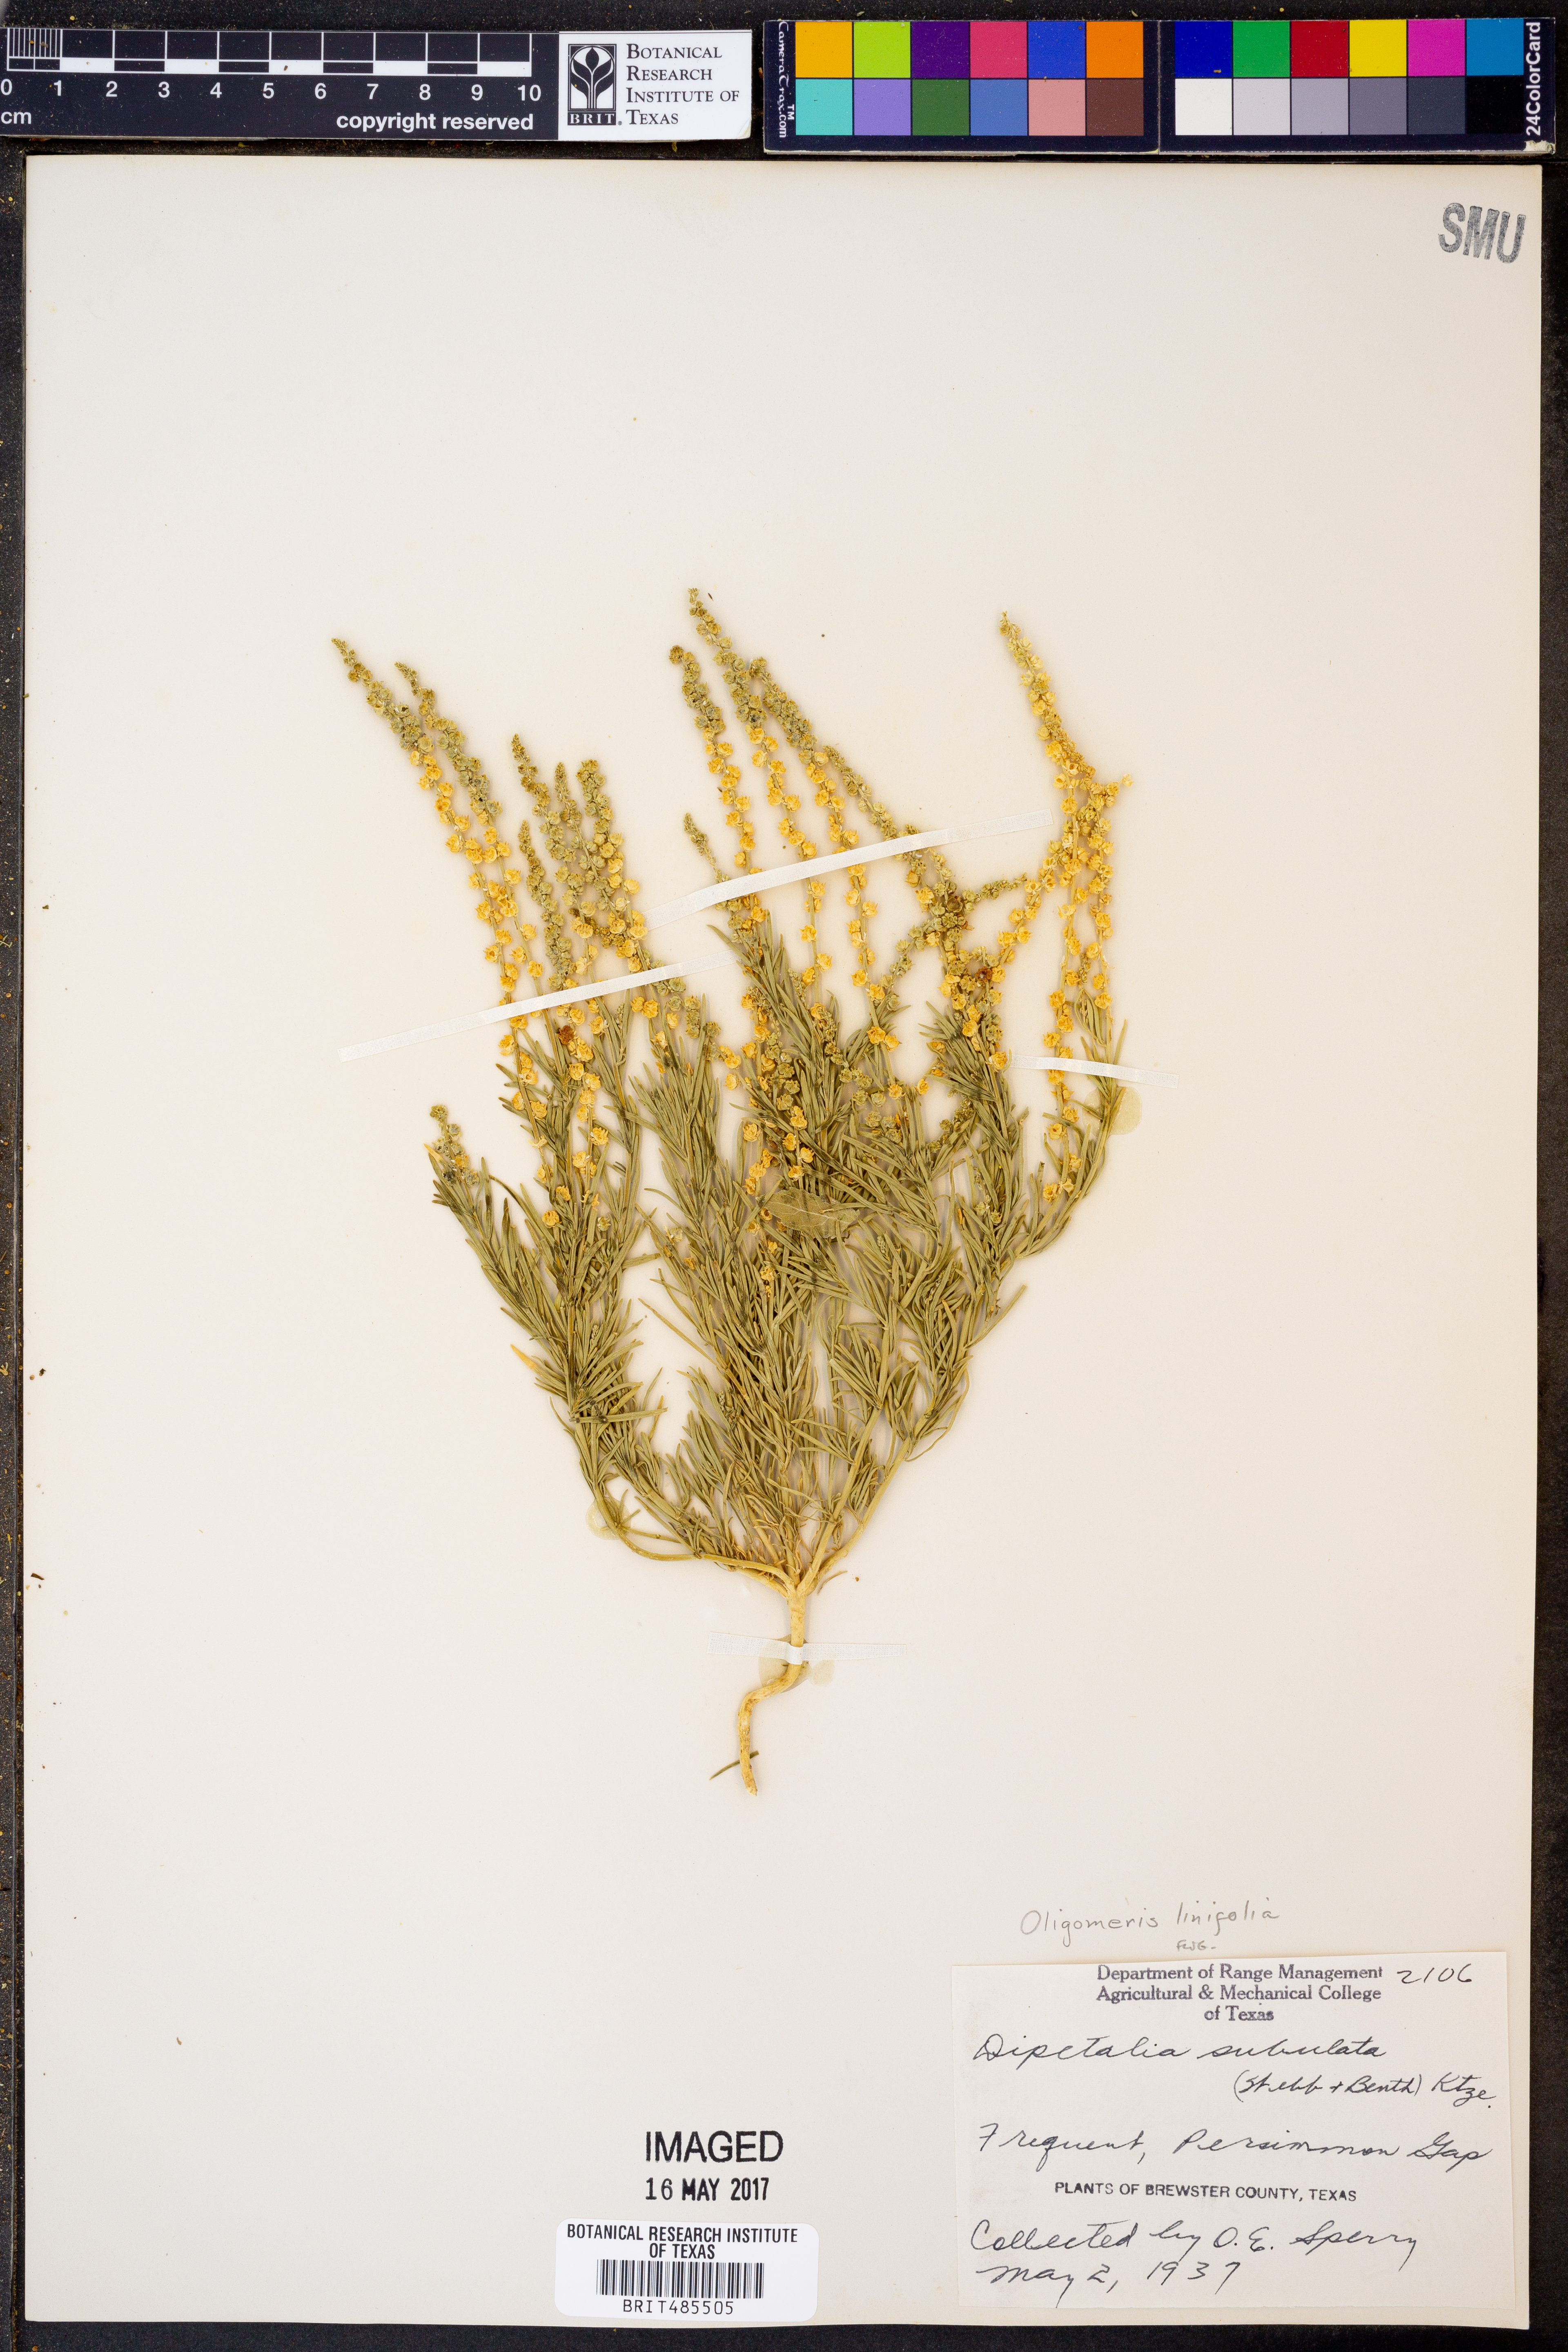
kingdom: Plantae
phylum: Tracheophyta
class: Magnoliopsida
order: Brassicales
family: Resedaceae
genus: Oligomeris
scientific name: Oligomeris linifolia
